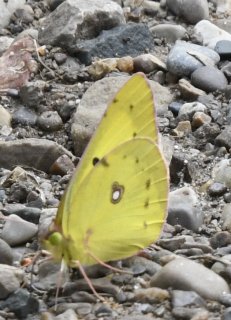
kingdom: Animalia
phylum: Arthropoda
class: Insecta
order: Lepidoptera
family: Pieridae
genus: Colias
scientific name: Colias philodice
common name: Clouded Sulphur
